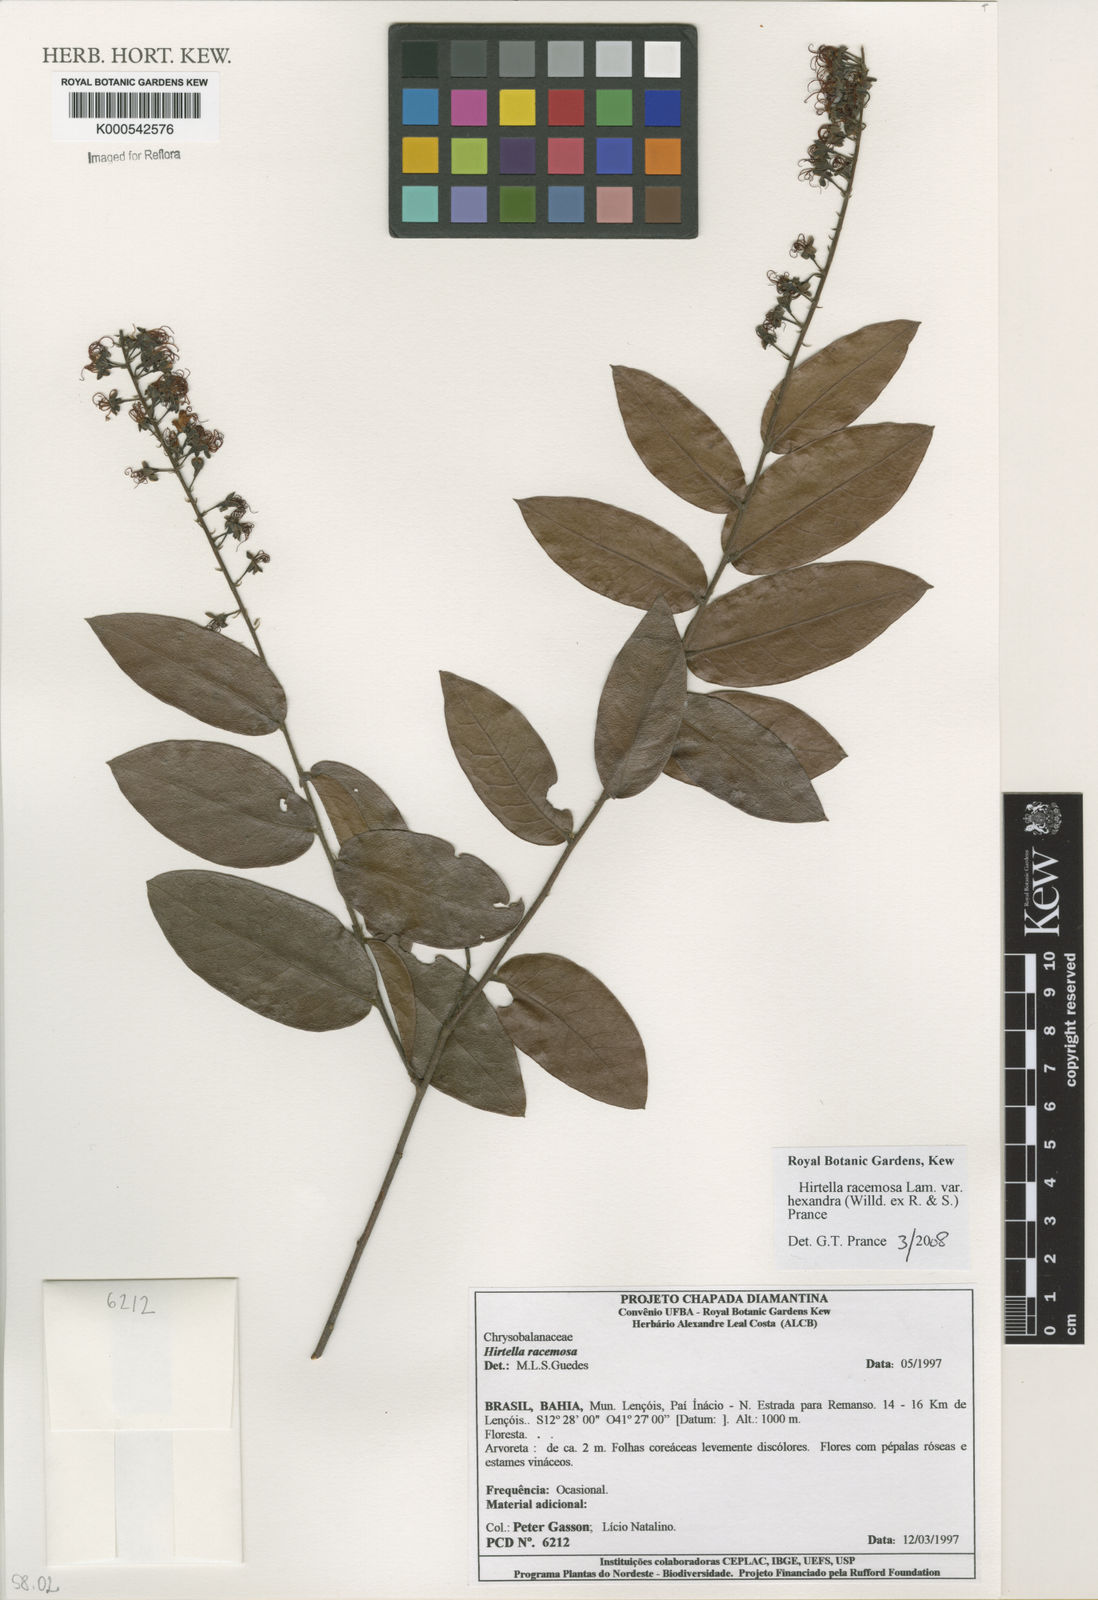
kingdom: Plantae
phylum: Tracheophyta
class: Magnoliopsida
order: Malpighiales
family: Chrysobalanaceae
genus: Hirtella
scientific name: Hirtella racemosa
